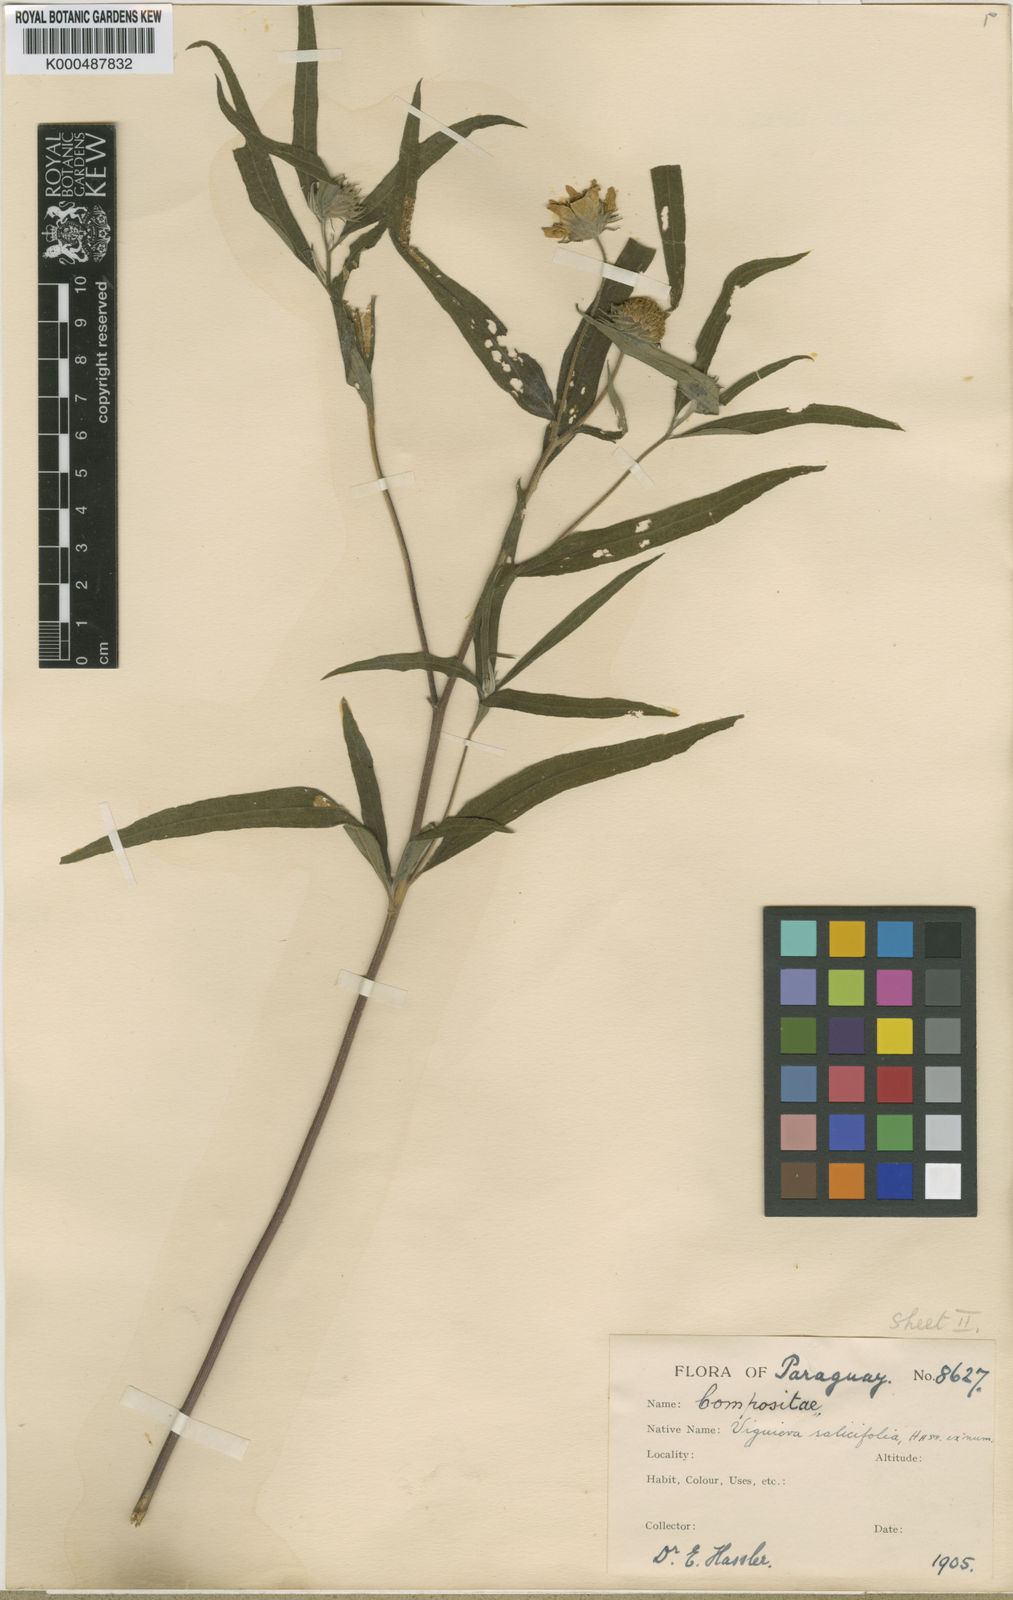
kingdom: Plantae
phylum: Tracheophyta
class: Magnoliopsida
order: Asterales
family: Asteraceae
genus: Aldama
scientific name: Aldama salicifolia
